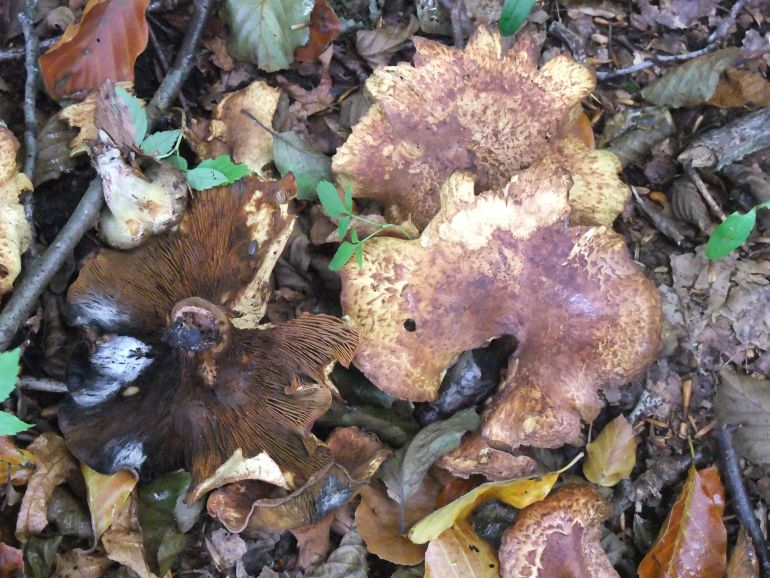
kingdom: Fungi
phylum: Basidiomycota
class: Agaricomycetes
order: Boletales
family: Paxillaceae
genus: Paxillus
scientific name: Paxillus rubicundulus
